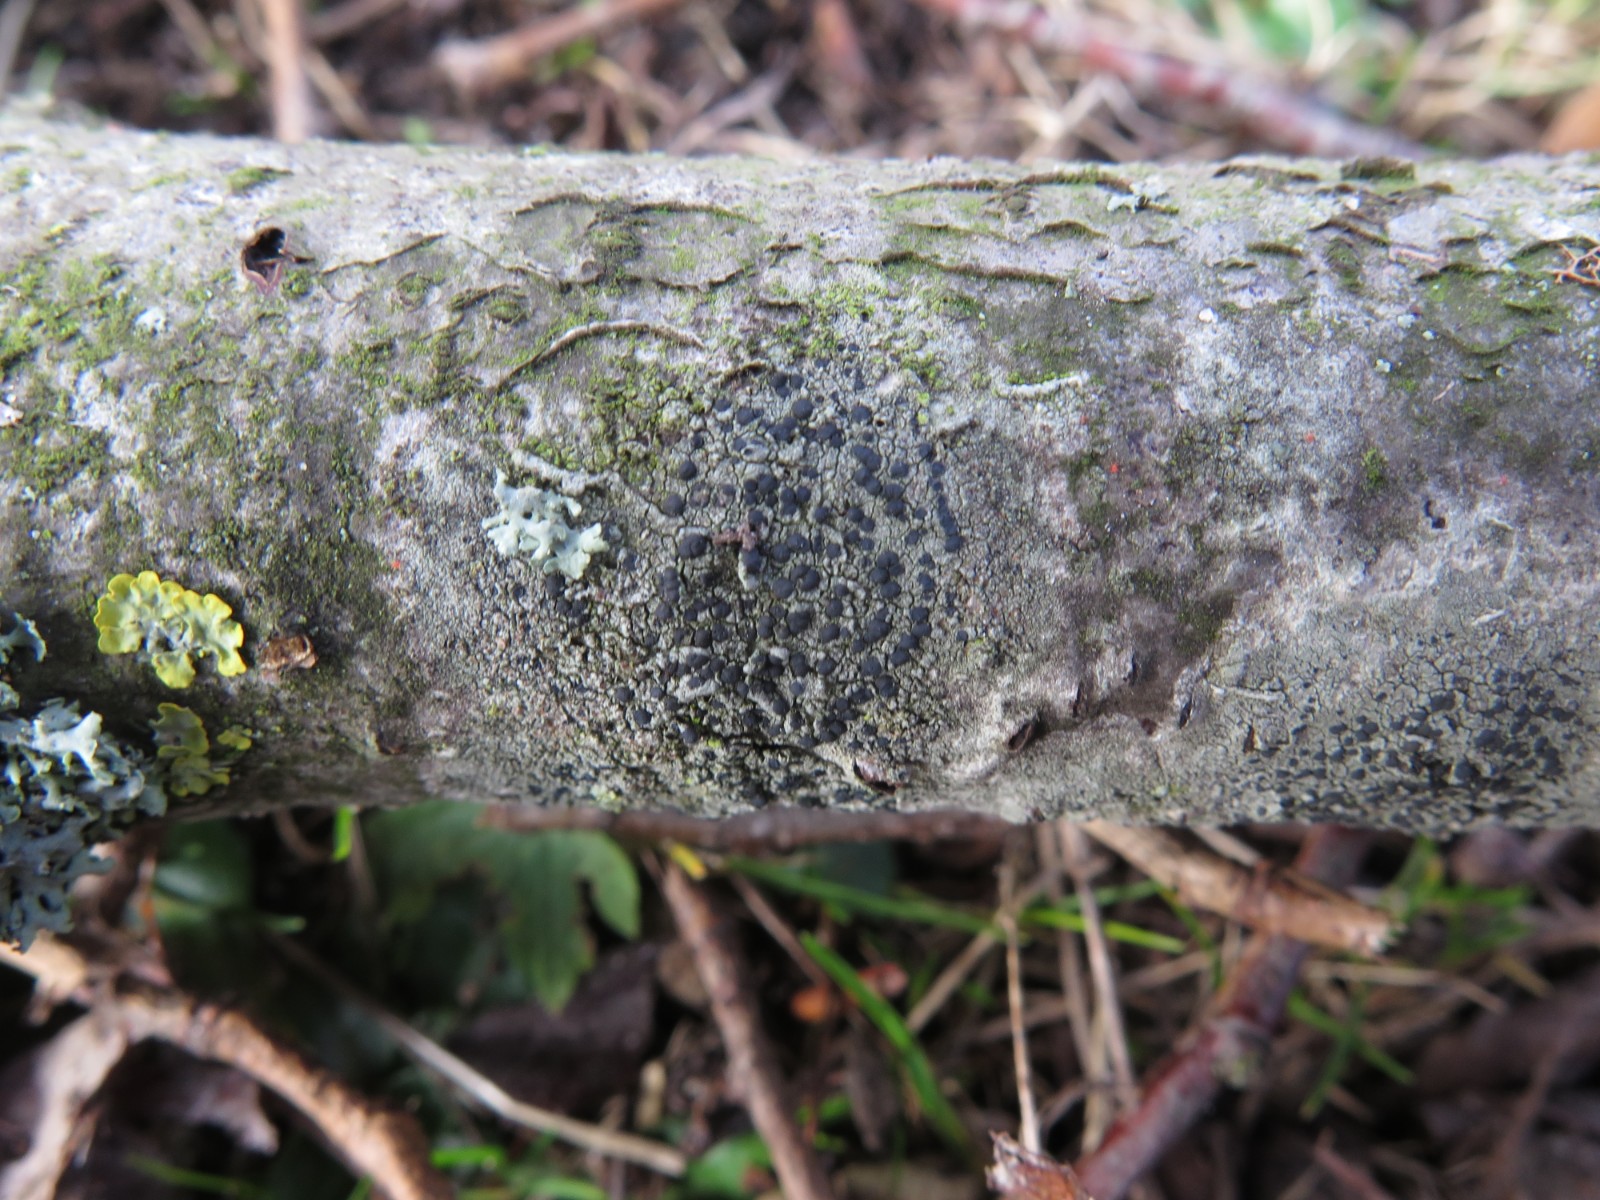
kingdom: Fungi
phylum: Ascomycota
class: Lecanoromycetes
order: Lecanorales
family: Lecanoraceae
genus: Lecidella
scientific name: Lecidella elaeochroma
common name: grågrøn skivelav
